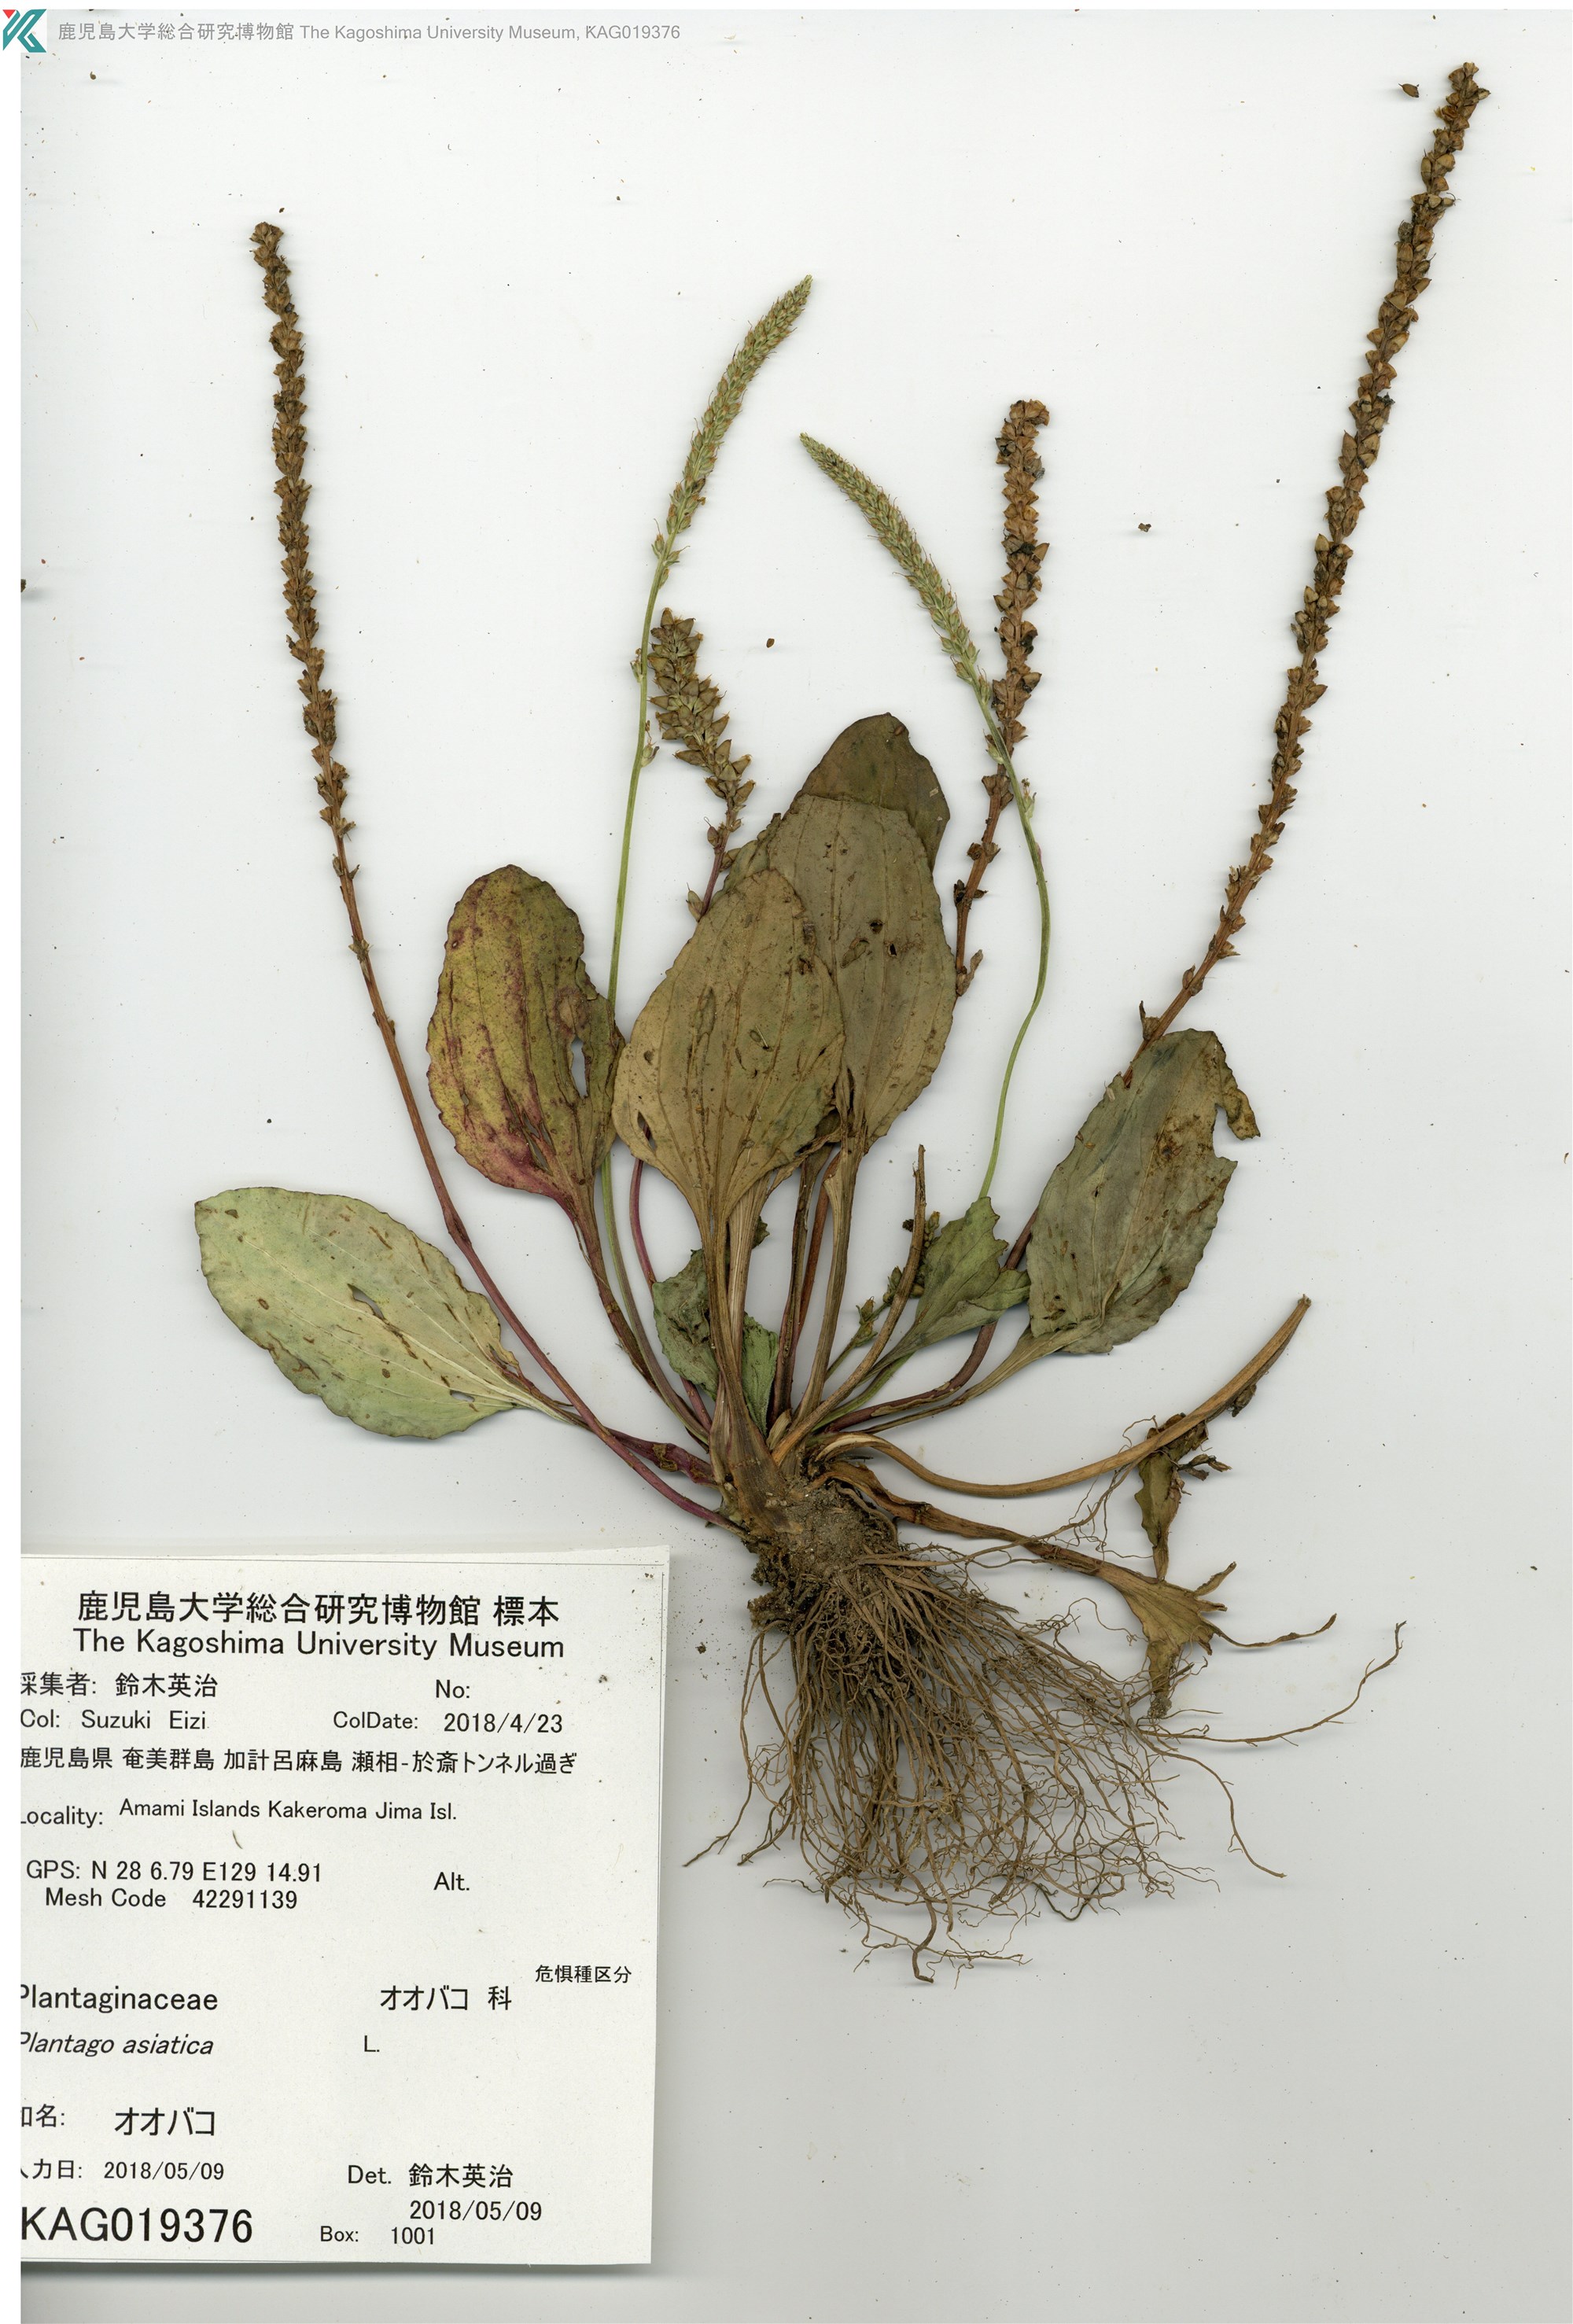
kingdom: Plantae
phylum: Tracheophyta
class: Magnoliopsida
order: Lamiales
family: Plantaginaceae
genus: Plantago
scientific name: Plantago asiatica
